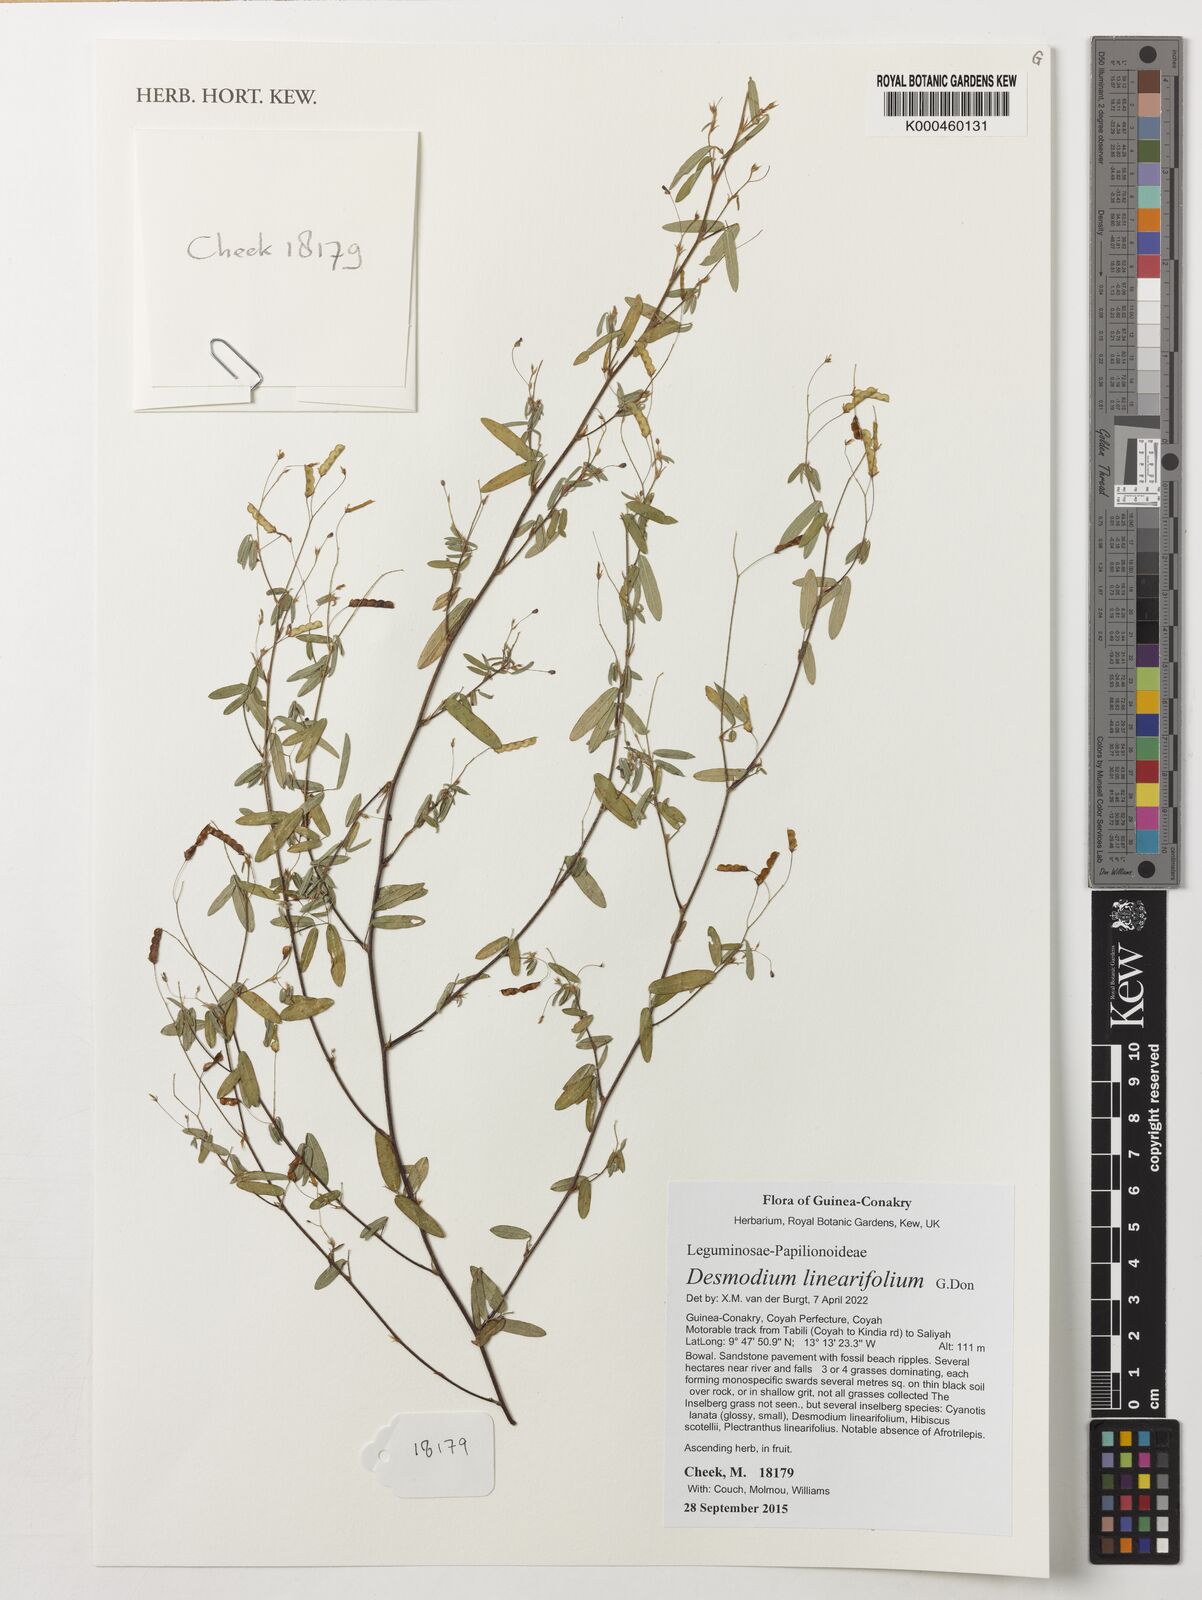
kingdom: Plantae
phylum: Tracheophyta
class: Magnoliopsida
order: Fabales
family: Fabaceae
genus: Mildbraediodendron
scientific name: Mildbraediodendron excelsum
